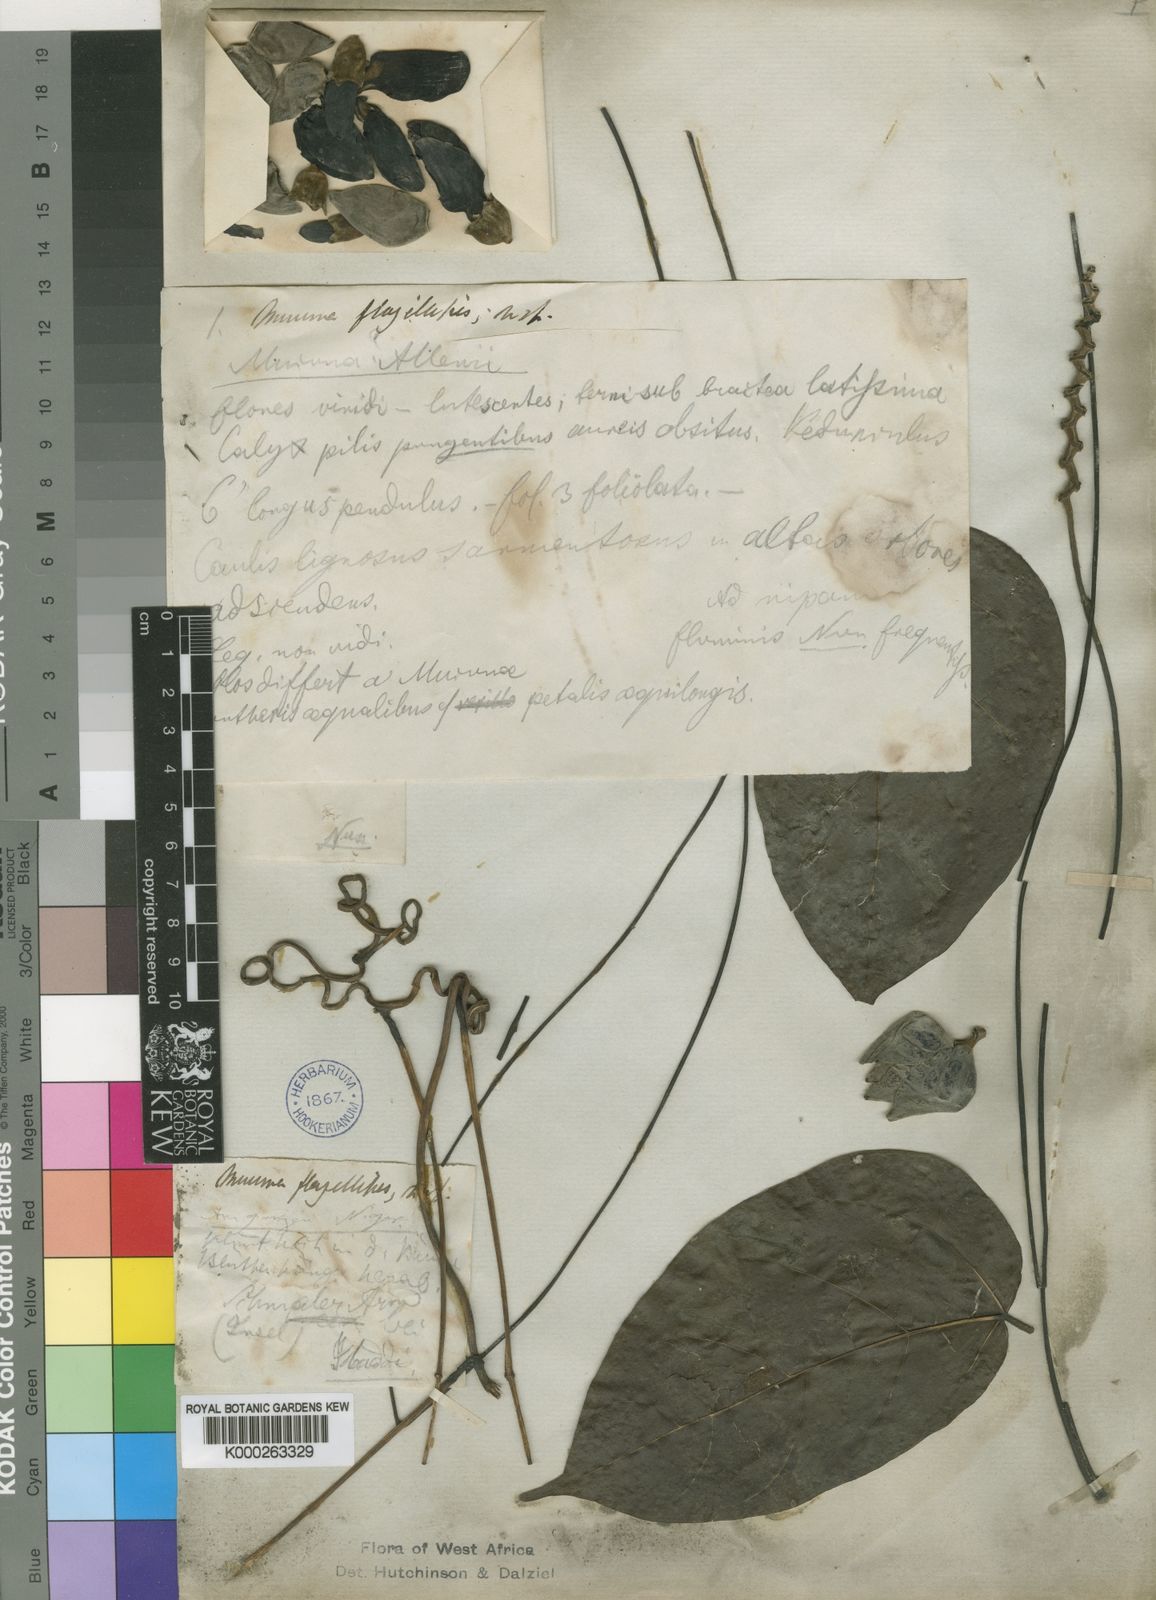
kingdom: Plantae
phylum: Tracheophyta
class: Magnoliopsida
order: Fabales
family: Fabaceae
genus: Mucuna
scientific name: Mucuna flagellipes
